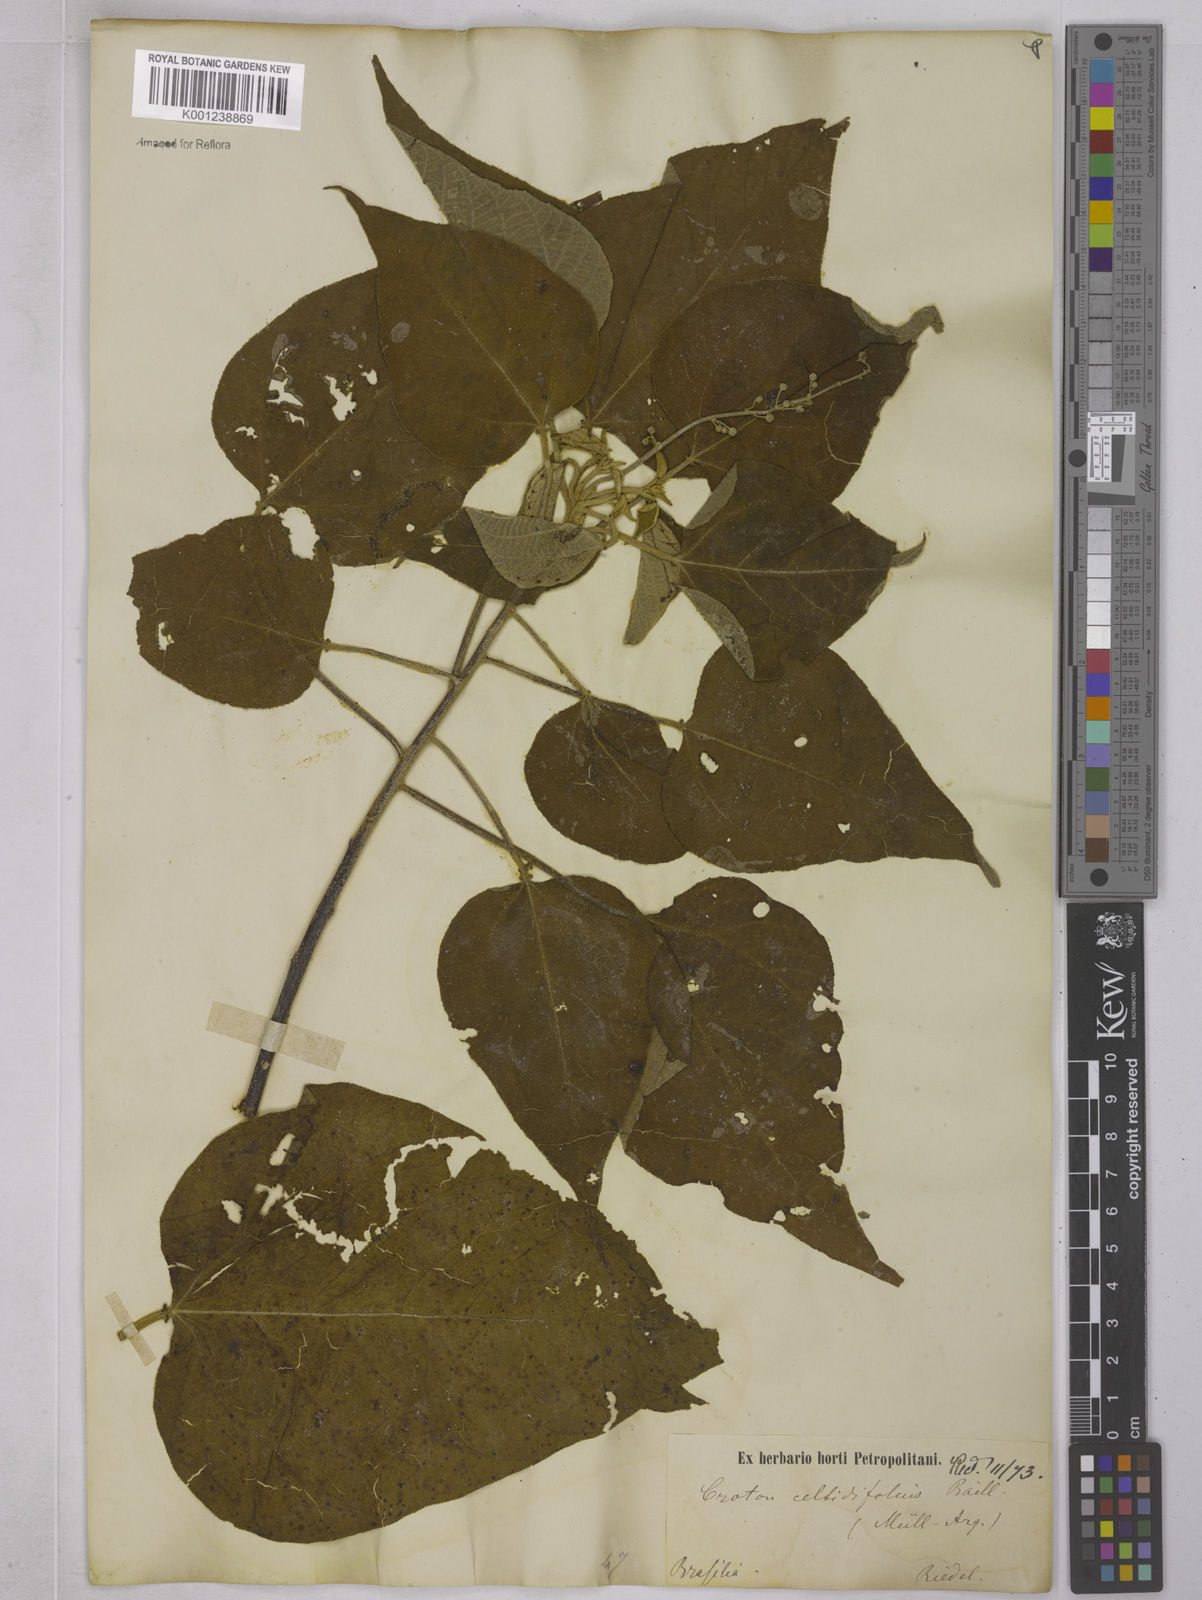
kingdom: Plantae
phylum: Tracheophyta
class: Magnoliopsida
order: Malpighiales
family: Euphorbiaceae
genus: Croton
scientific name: Croton celtidifolius
